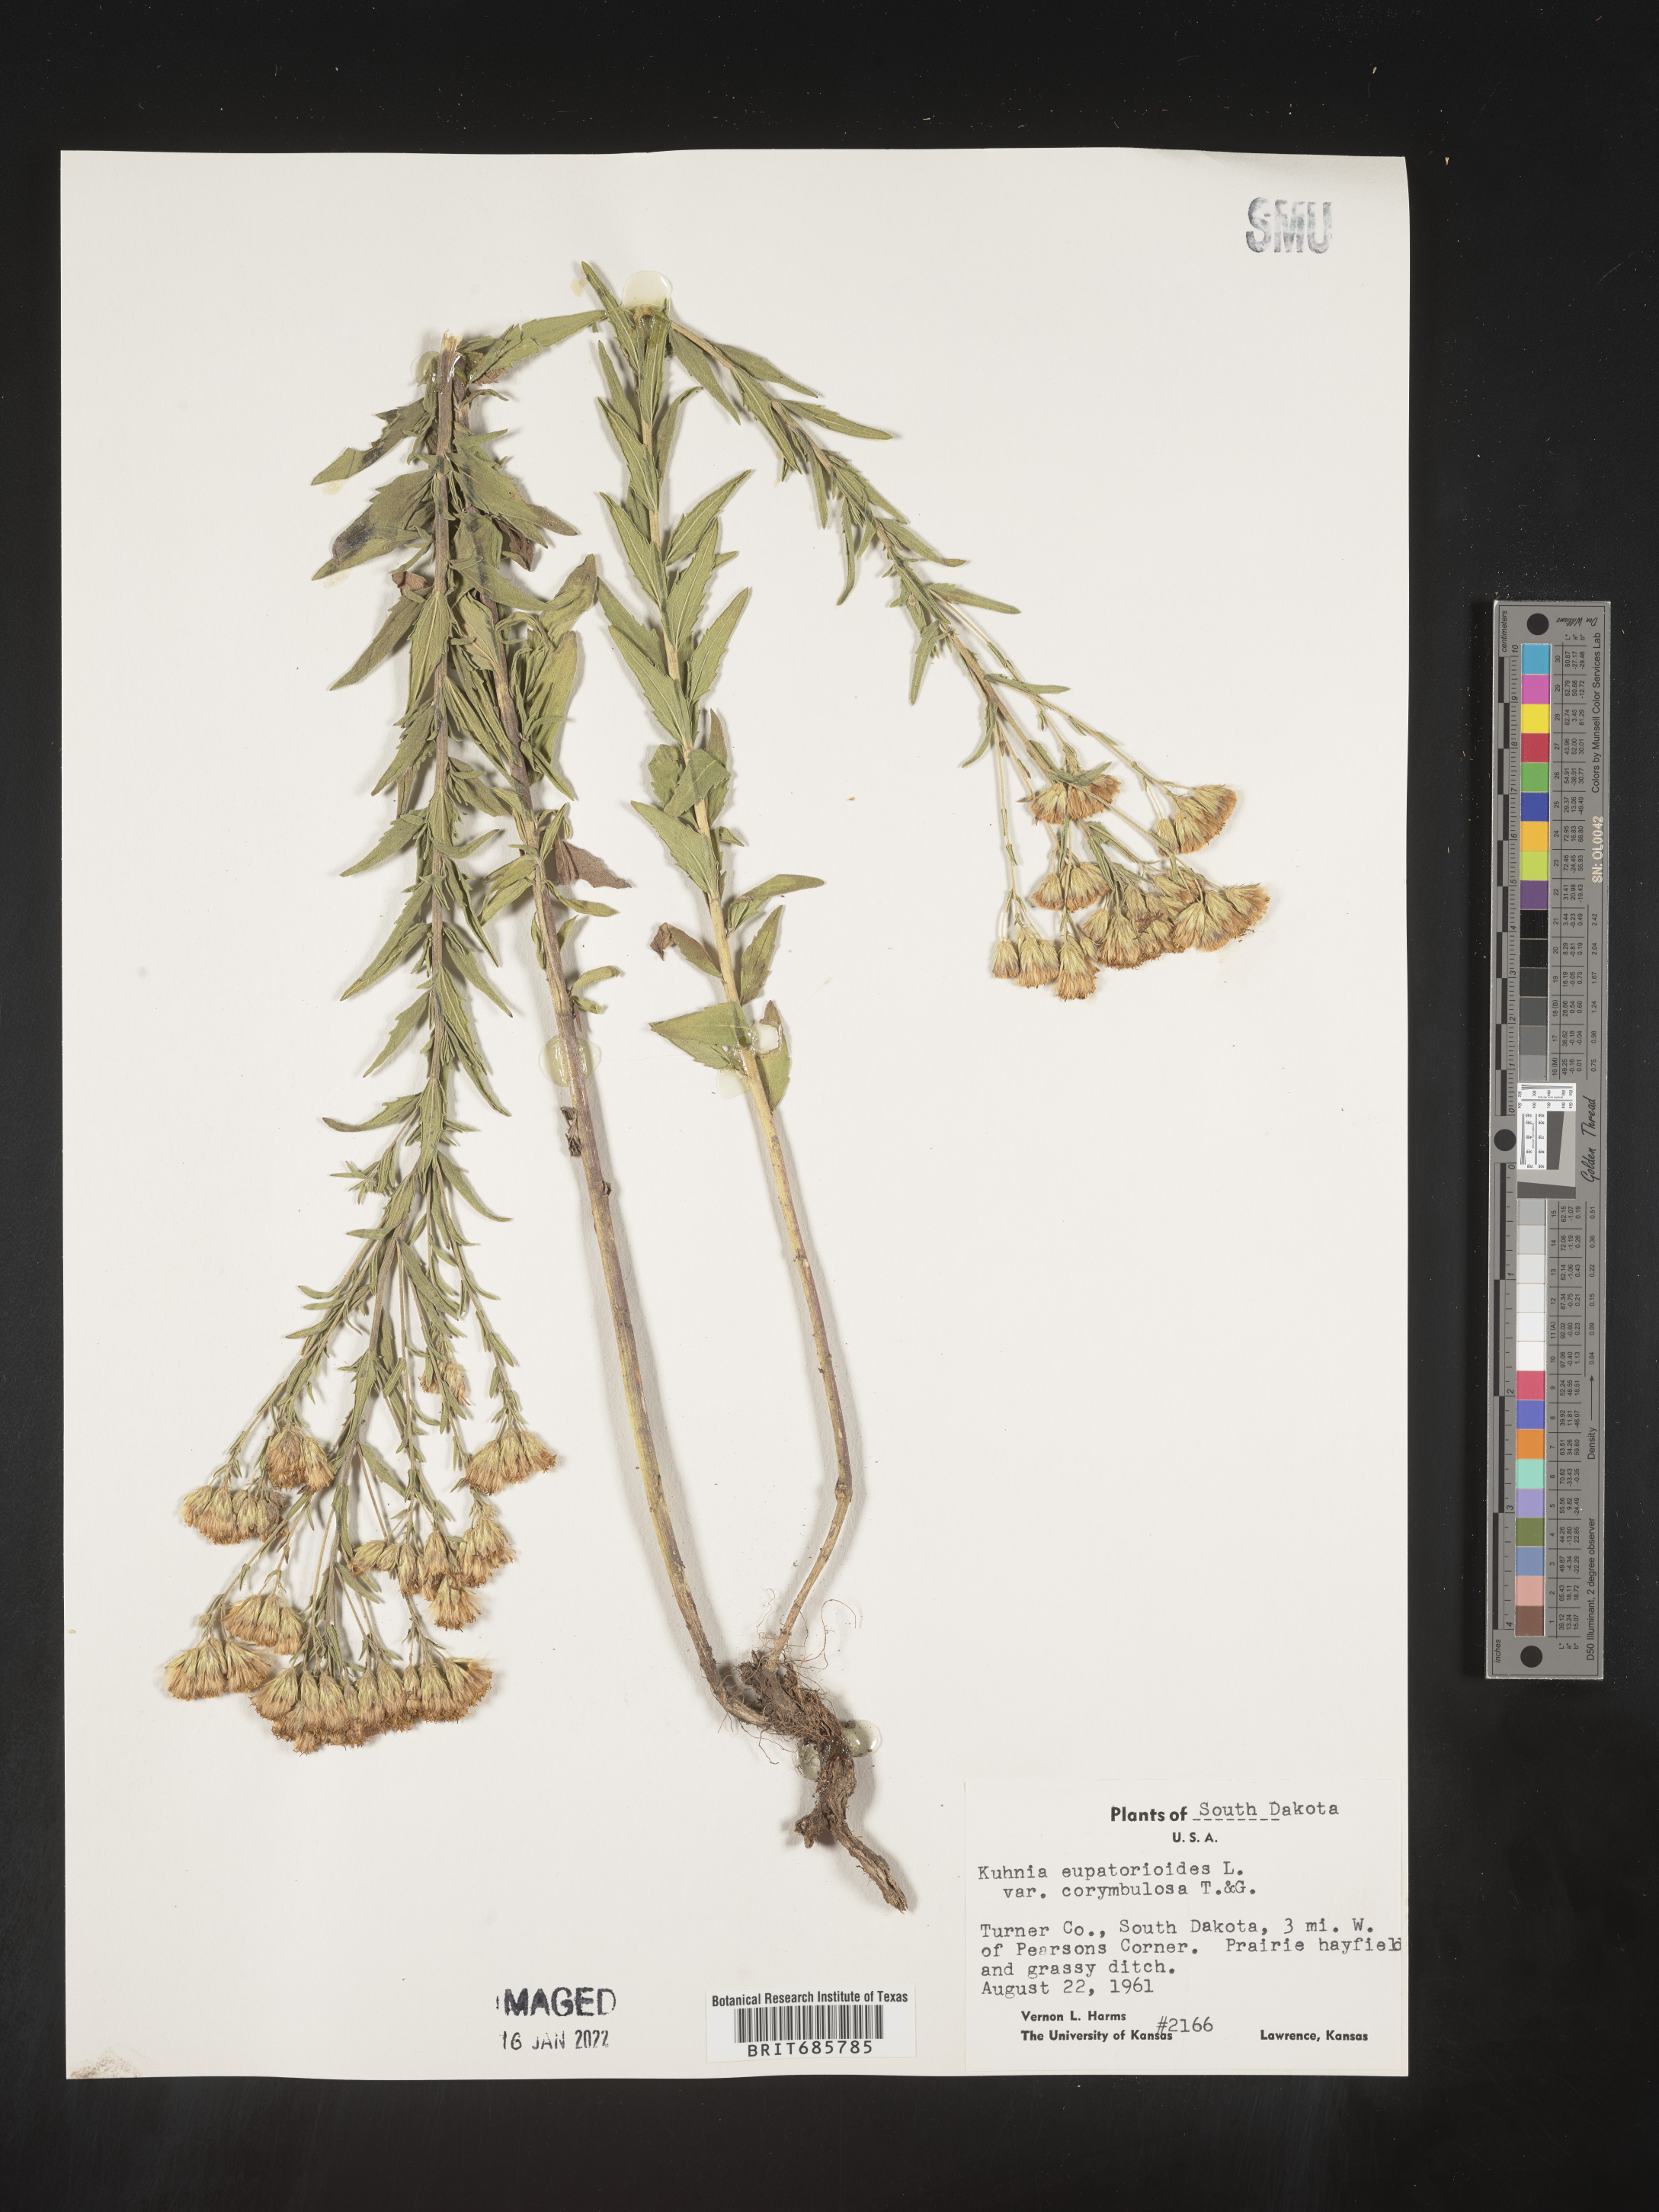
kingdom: Plantae
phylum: Tracheophyta
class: Magnoliopsida
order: Asterales
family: Asteraceae
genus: Brickellia
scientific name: Brickellia eupatorioides
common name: False boneset
